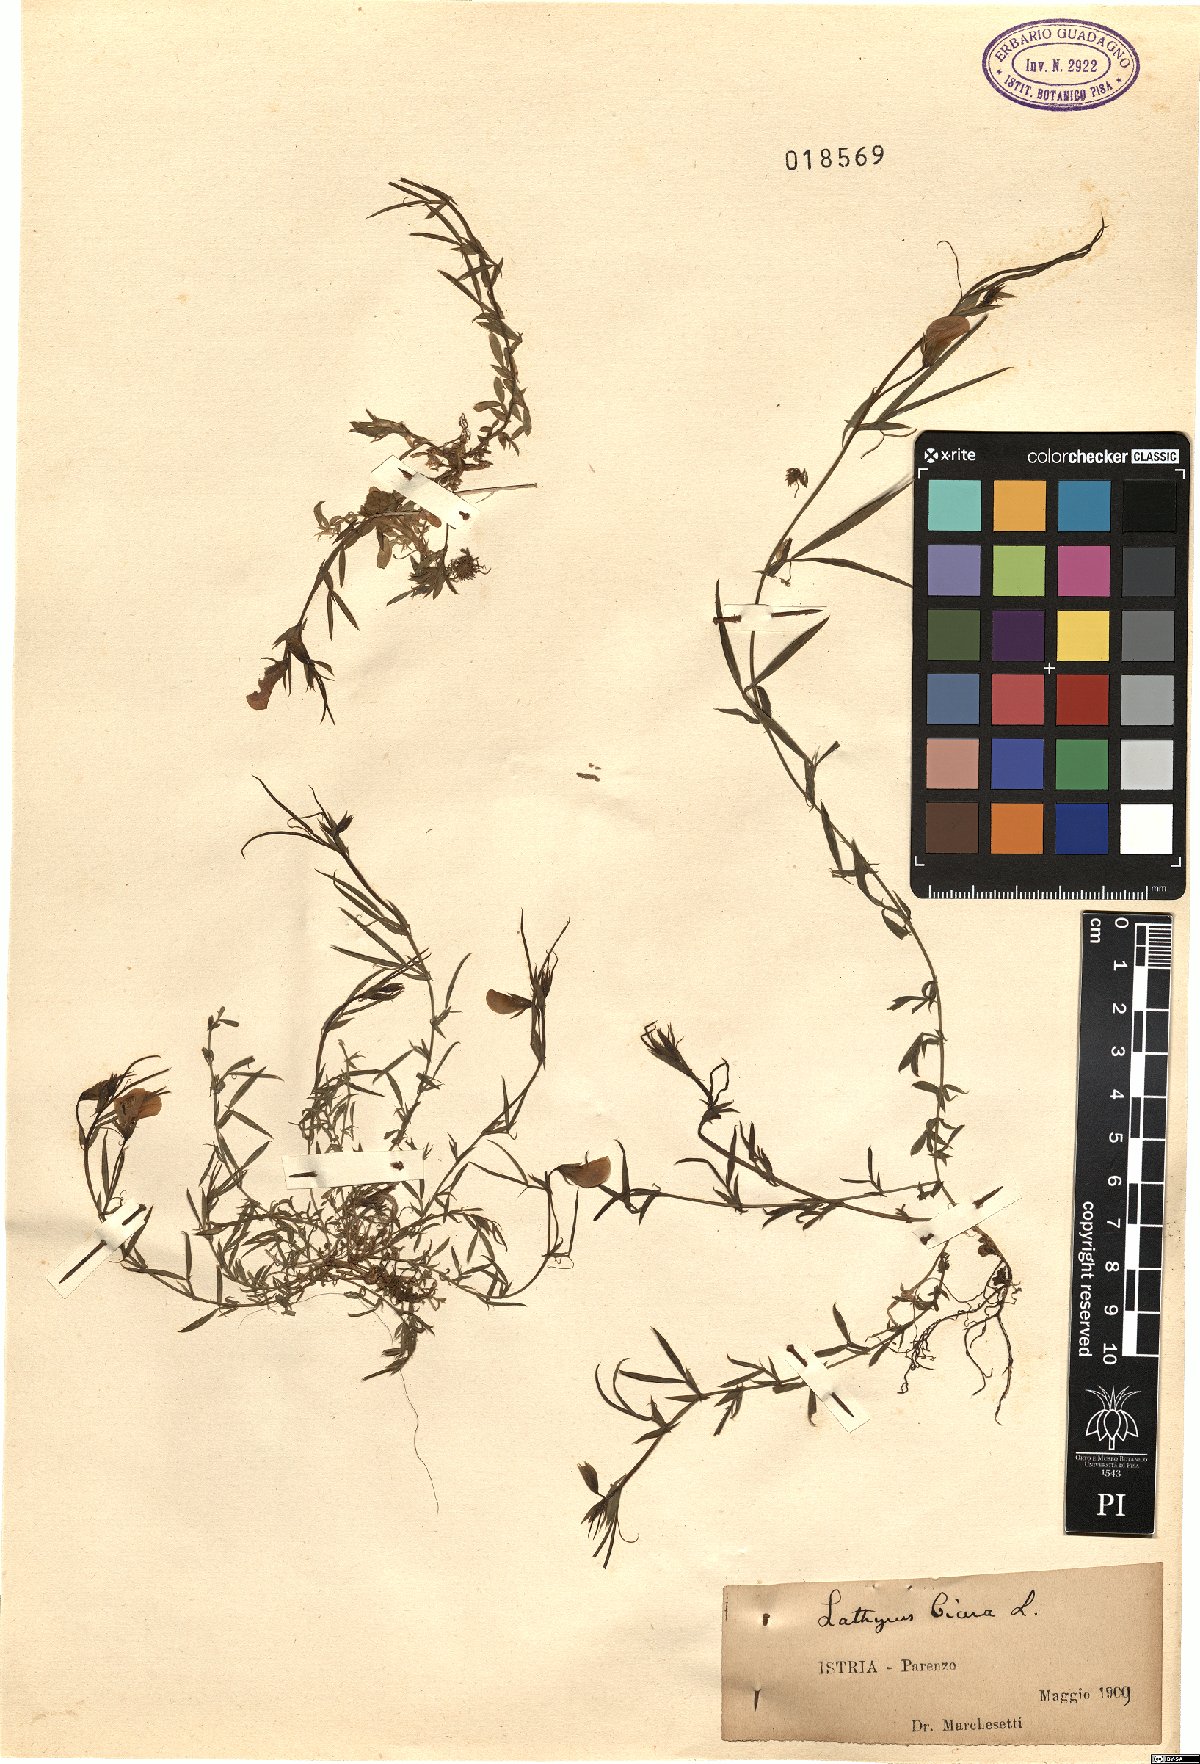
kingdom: Plantae
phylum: Tracheophyta
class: Magnoliopsida
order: Fabales
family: Fabaceae
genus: Lathyrus
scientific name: Lathyrus cicera
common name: Red vetchling
